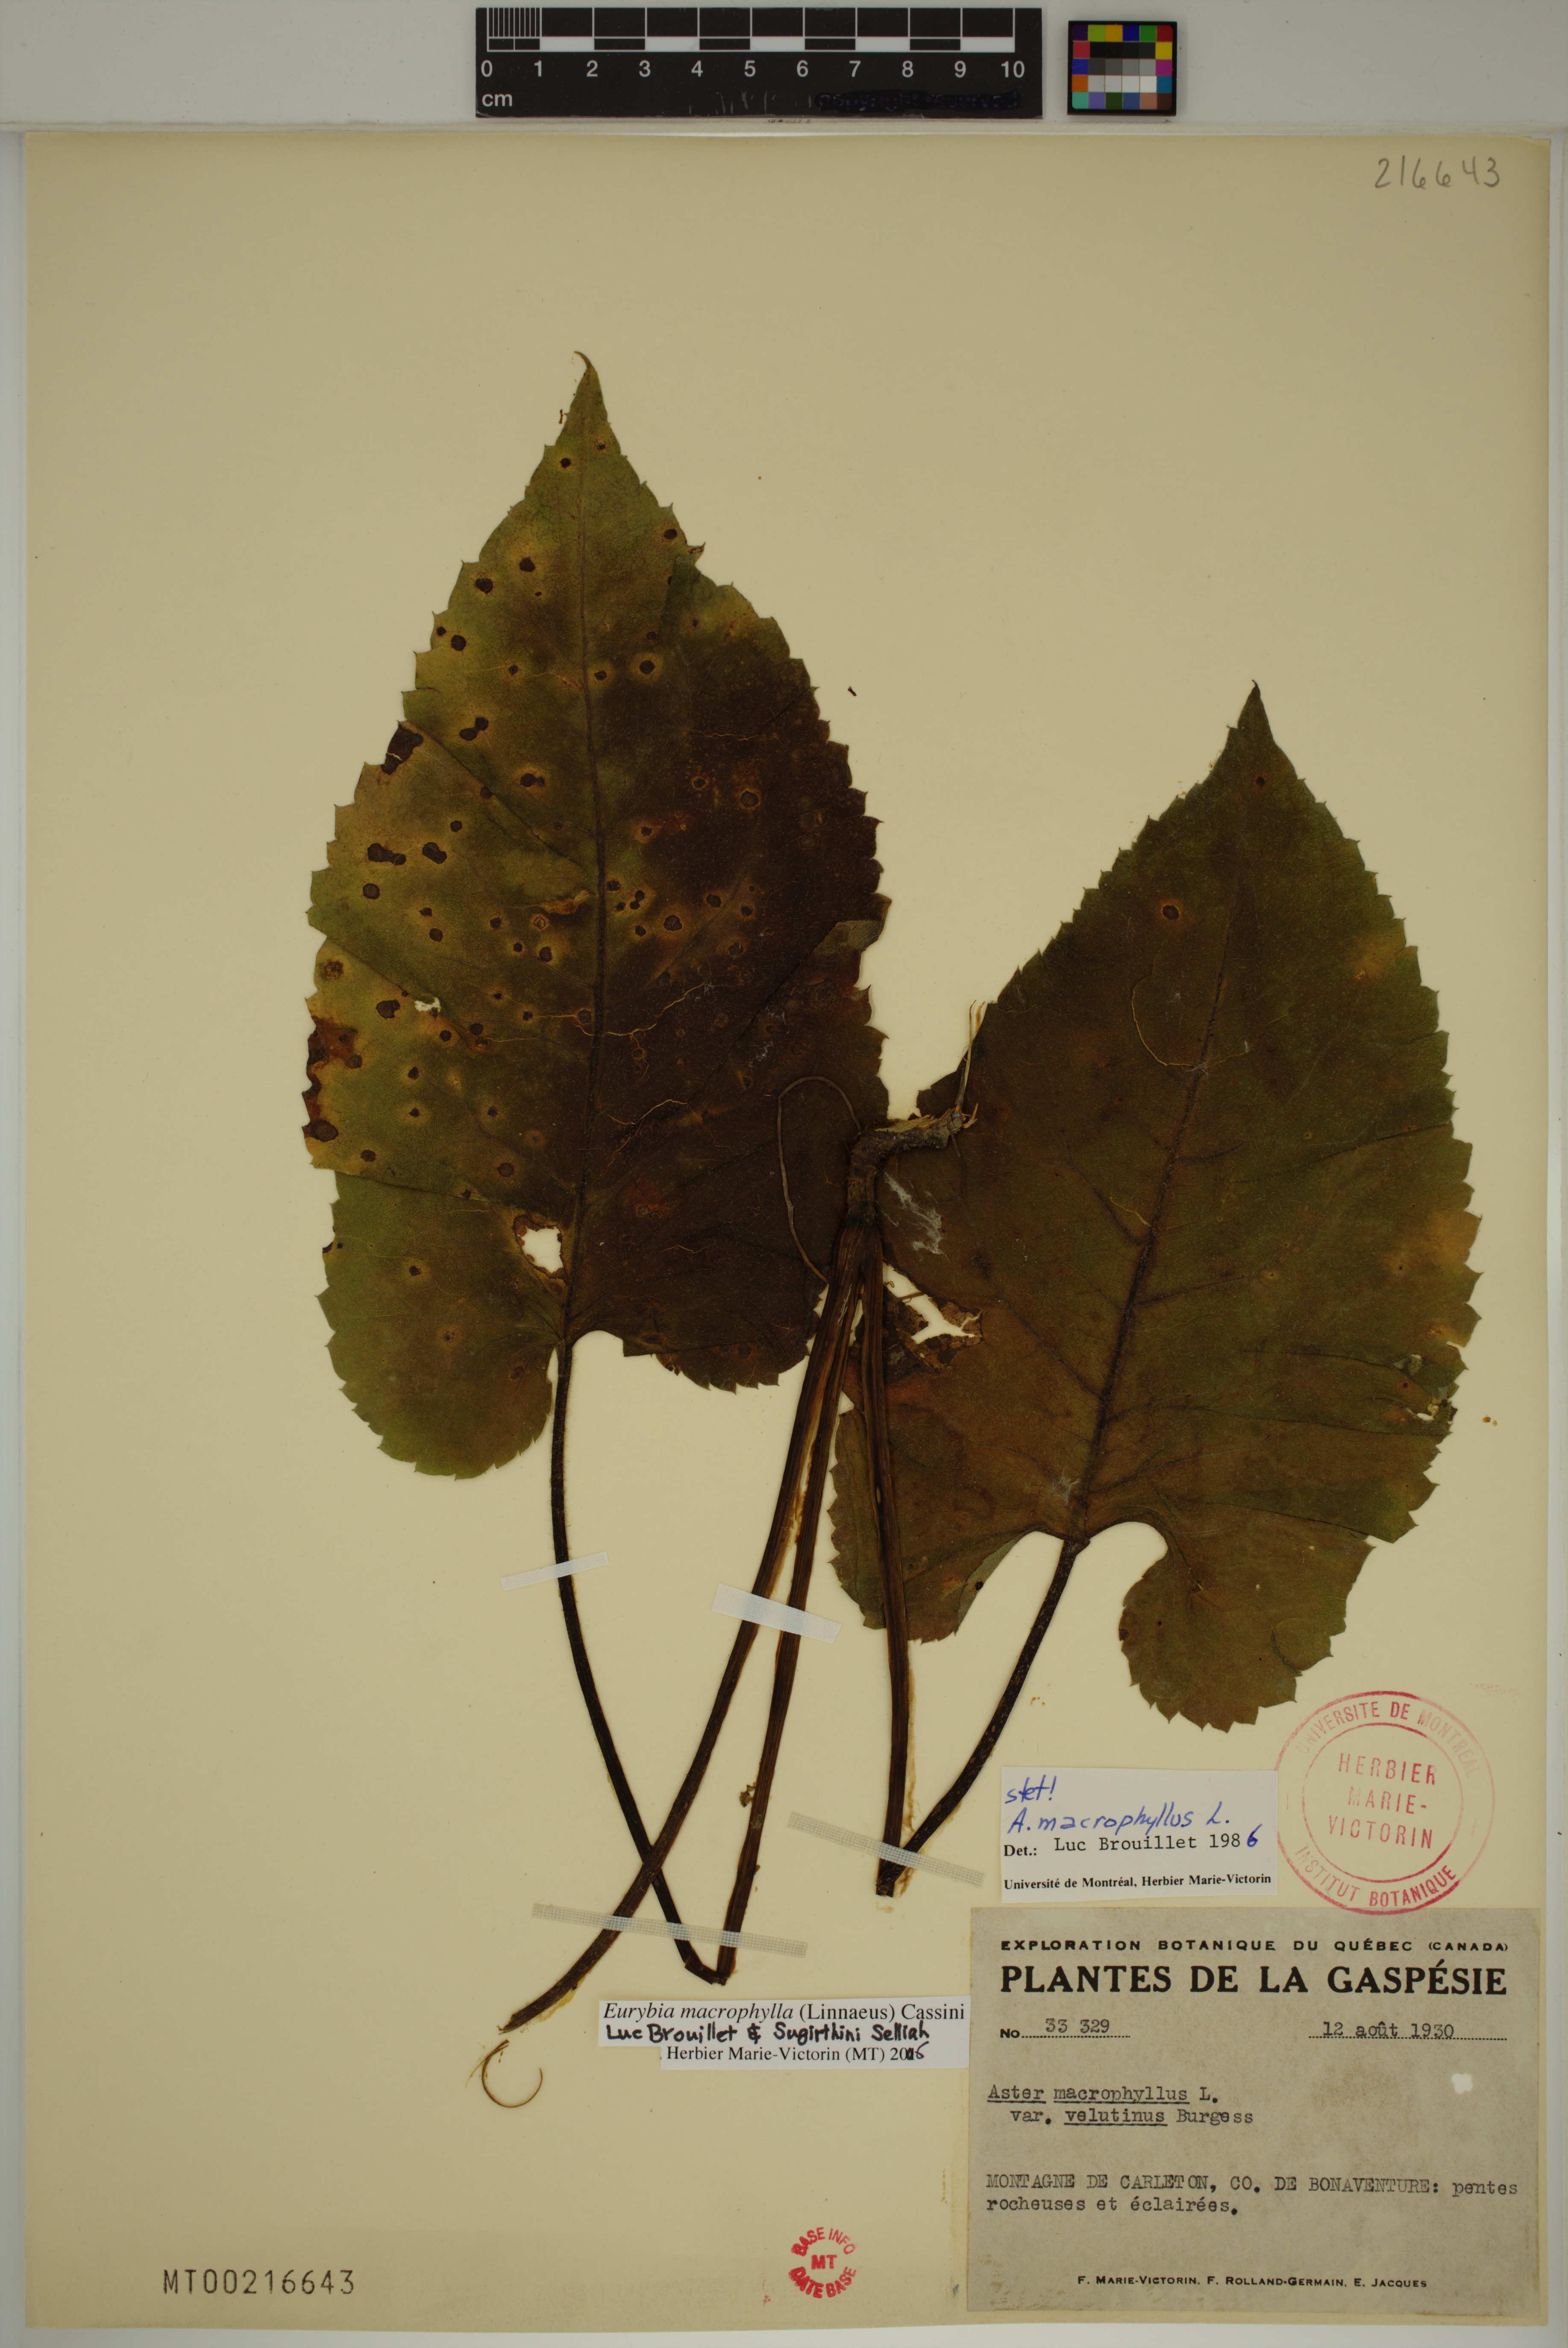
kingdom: Plantae
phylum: Tracheophyta
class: Magnoliopsida
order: Asterales
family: Asteraceae
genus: Eurybia
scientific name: Eurybia macrophylla
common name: Big-leaved aster
